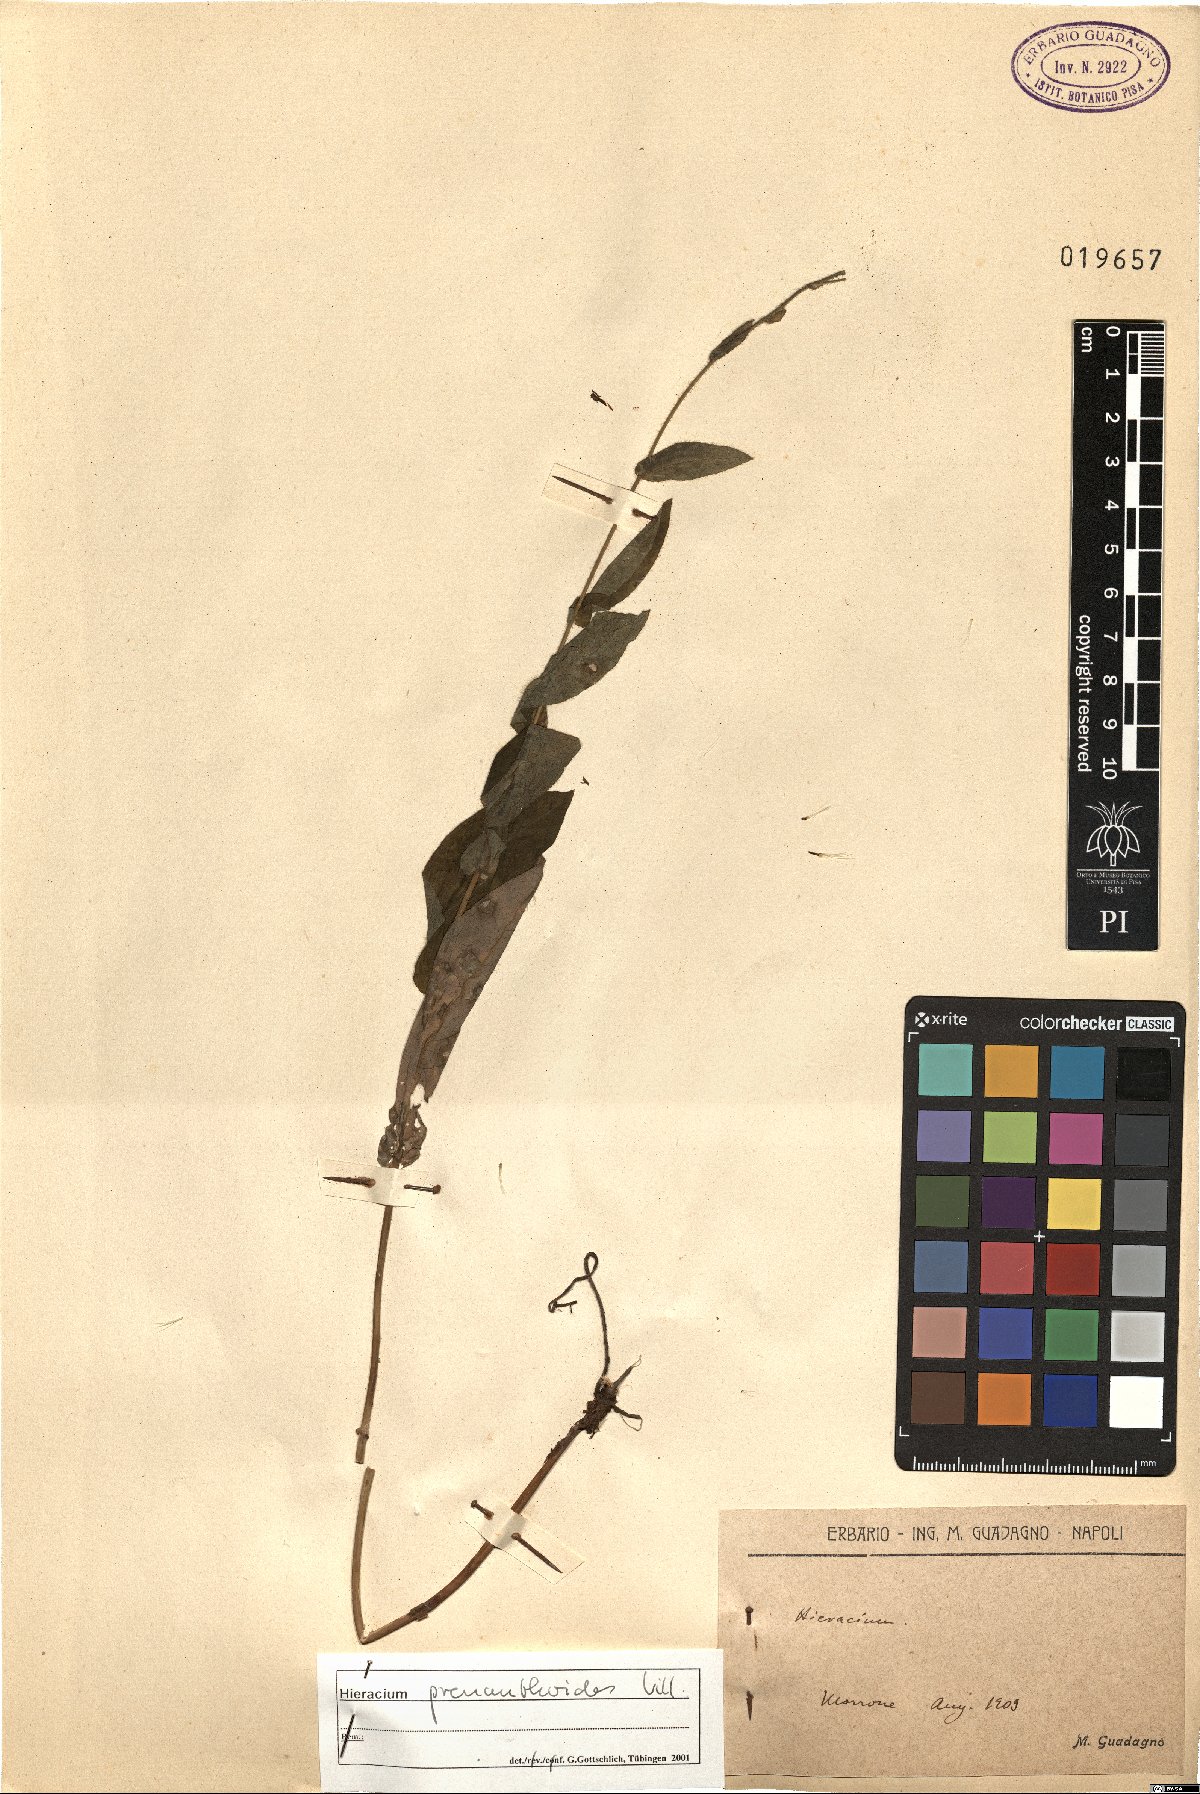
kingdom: Plantae
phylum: Tracheophyta
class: Magnoliopsida
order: Asterales
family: Asteraceae
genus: Hieracium
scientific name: Hieracium prenanthoides
